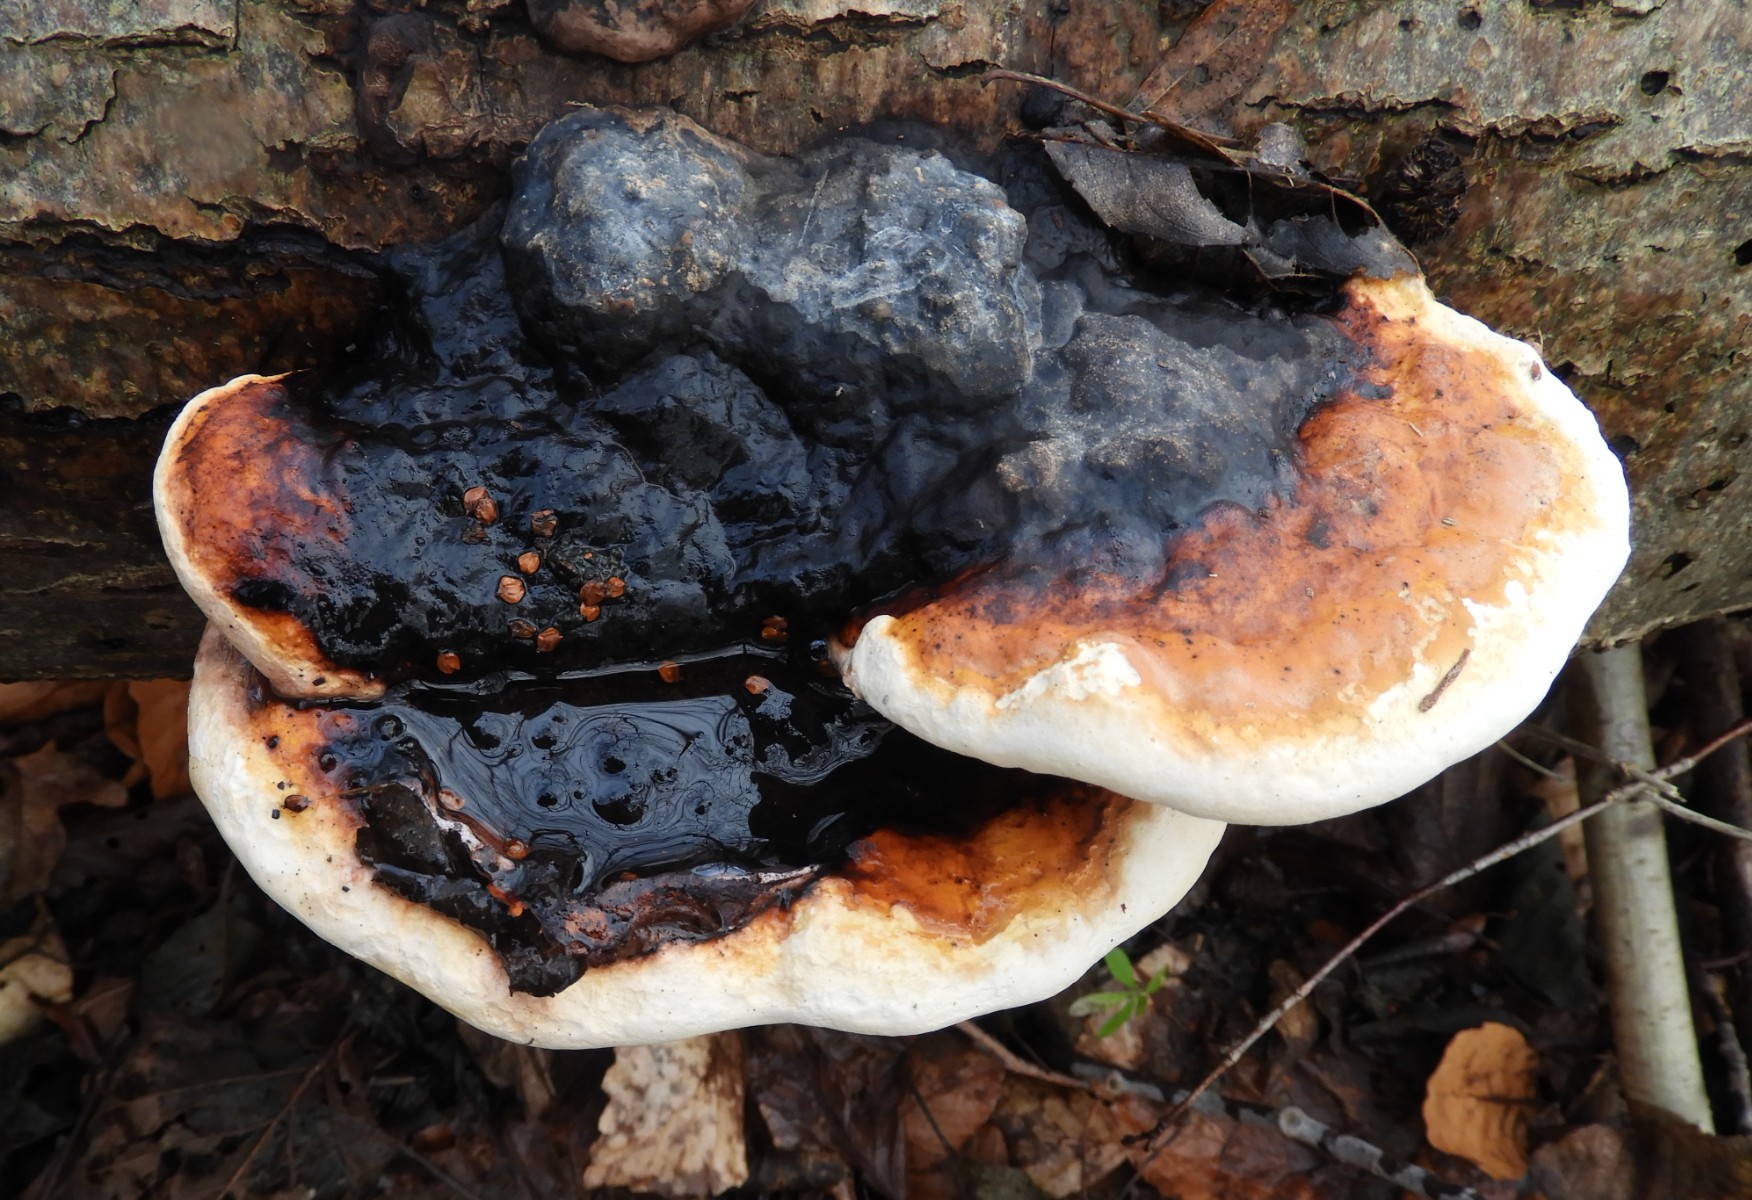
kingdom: Fungi
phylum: Basidiomycota
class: Agaricomycetes
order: Polyporales
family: Fomitopsidaceae
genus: Fomitopsis
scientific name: Fomitopsis pinicola
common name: randbæltet hovporesvamp
